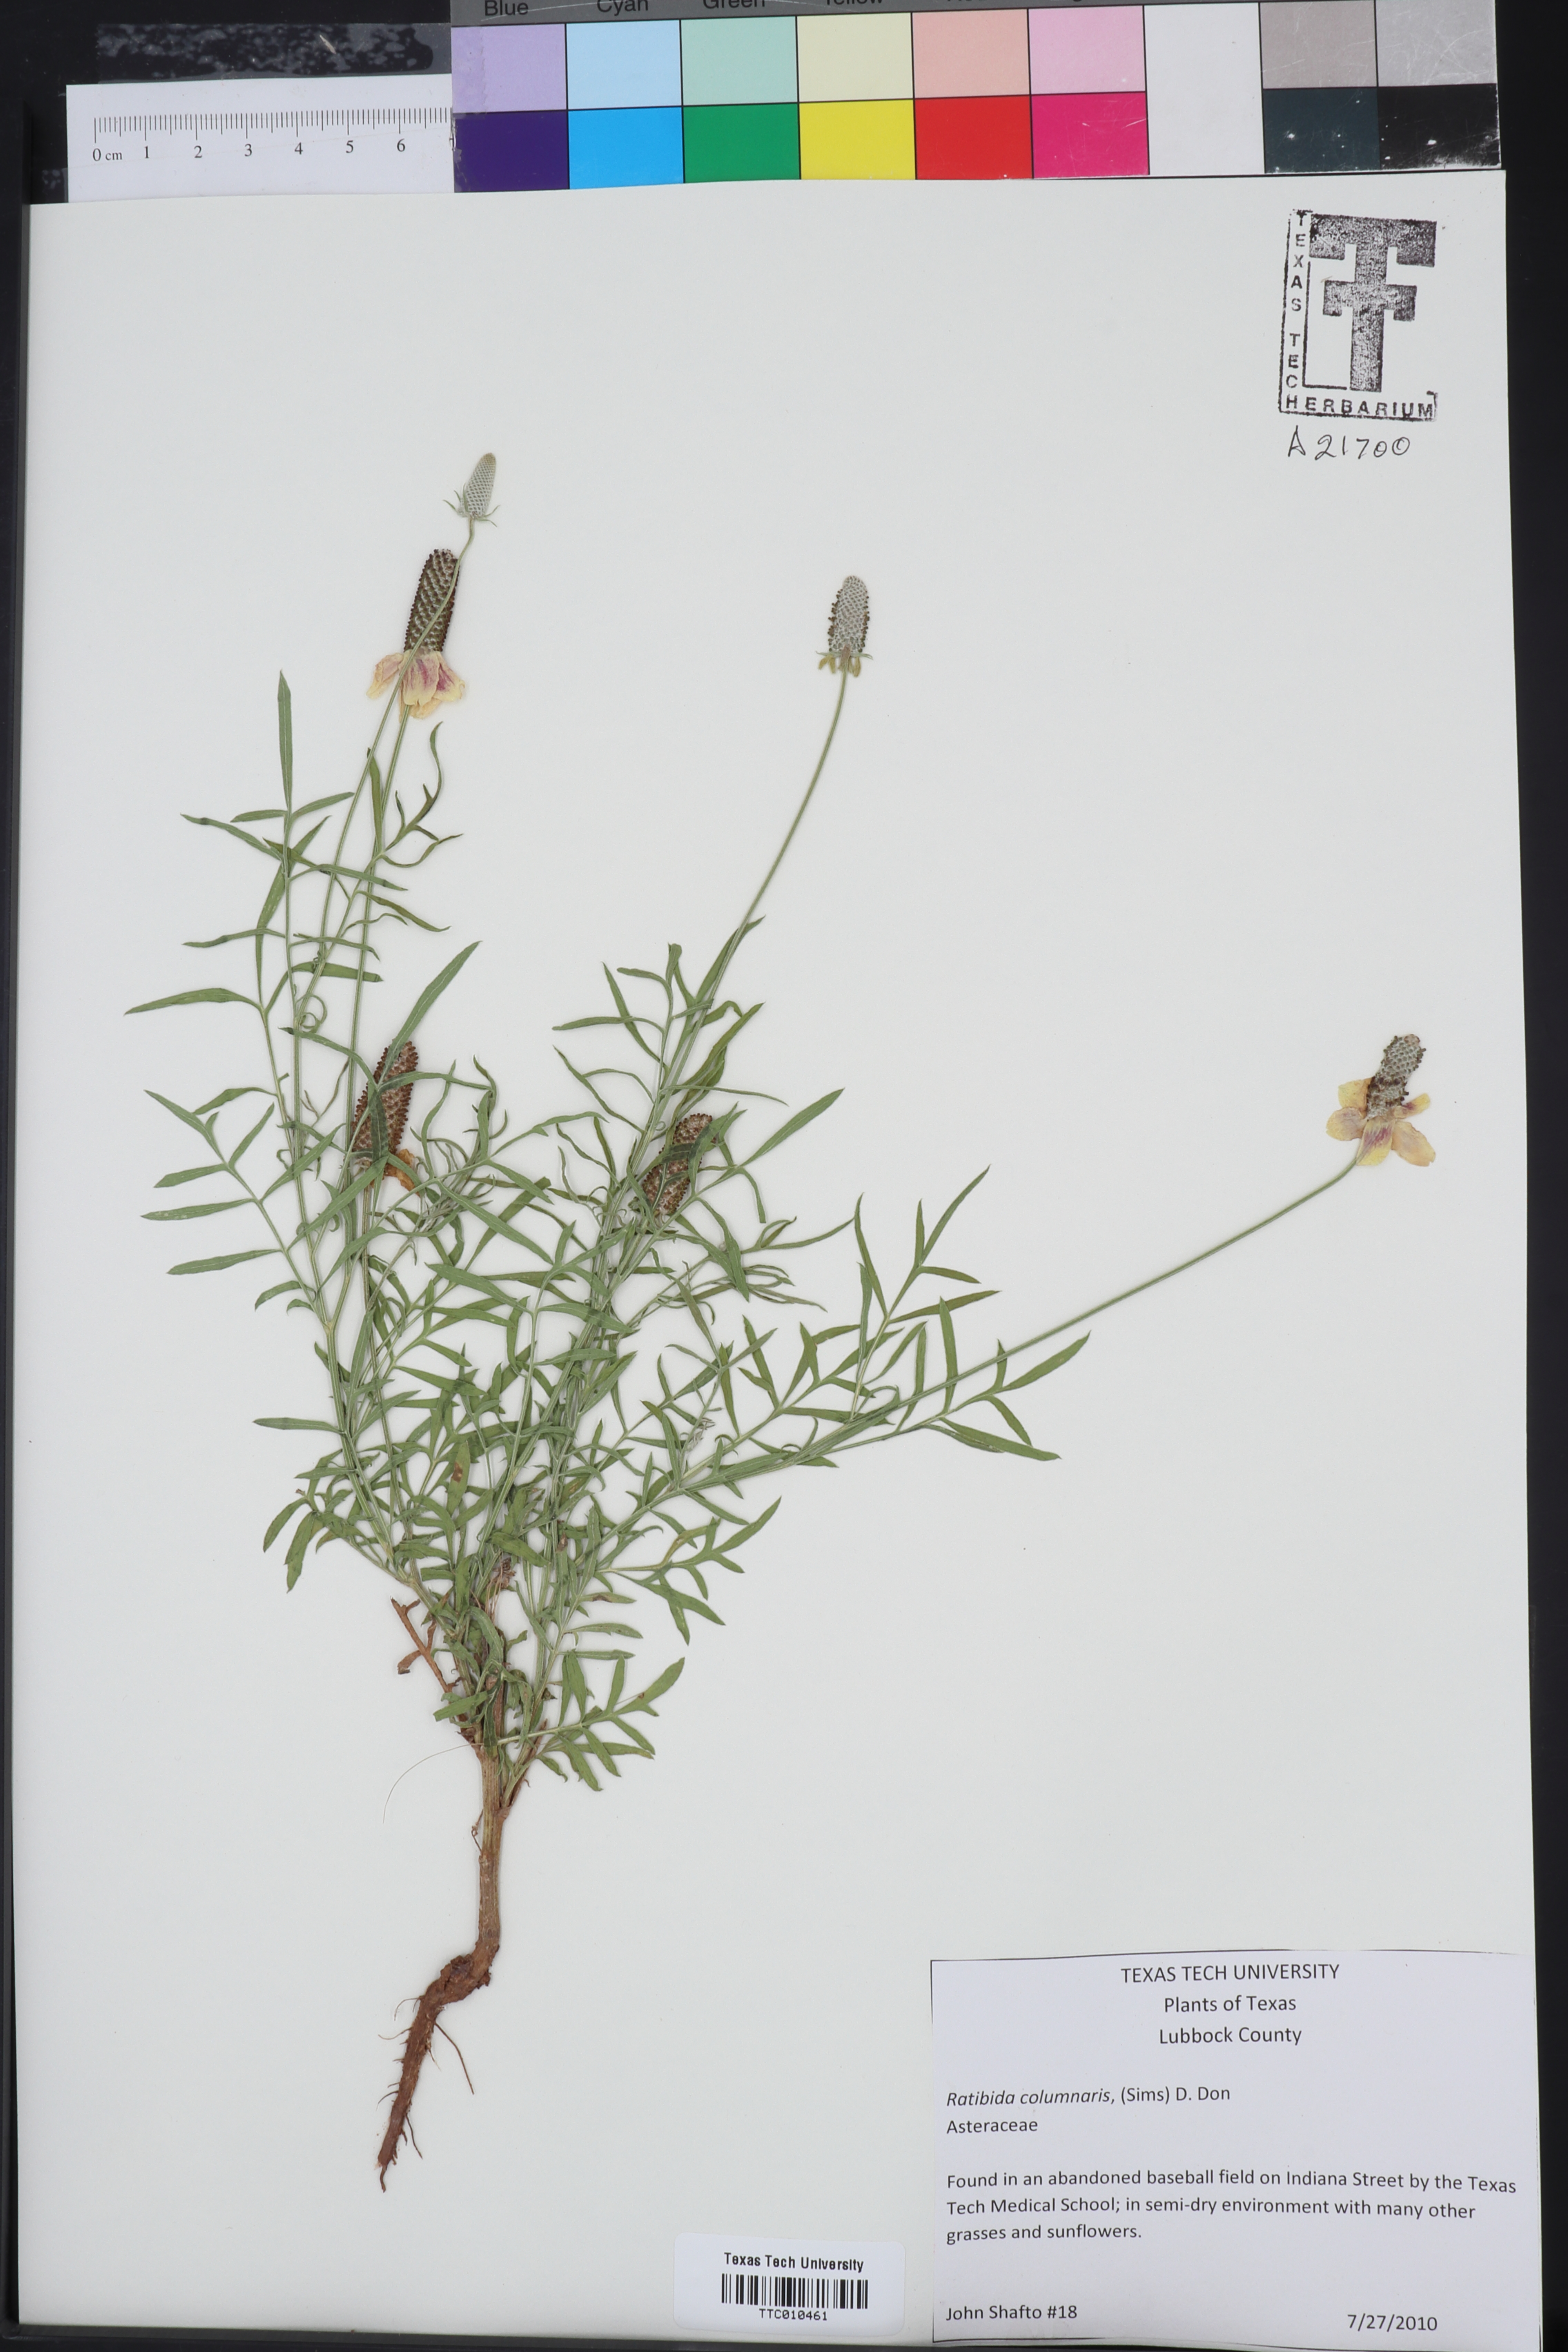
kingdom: Plantae
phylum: Tracheophyta
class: Magnoliopsida
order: Asterales
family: Asteraceae
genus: Ratibida
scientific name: Ratibida columnifera
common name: Prairie coneflower
